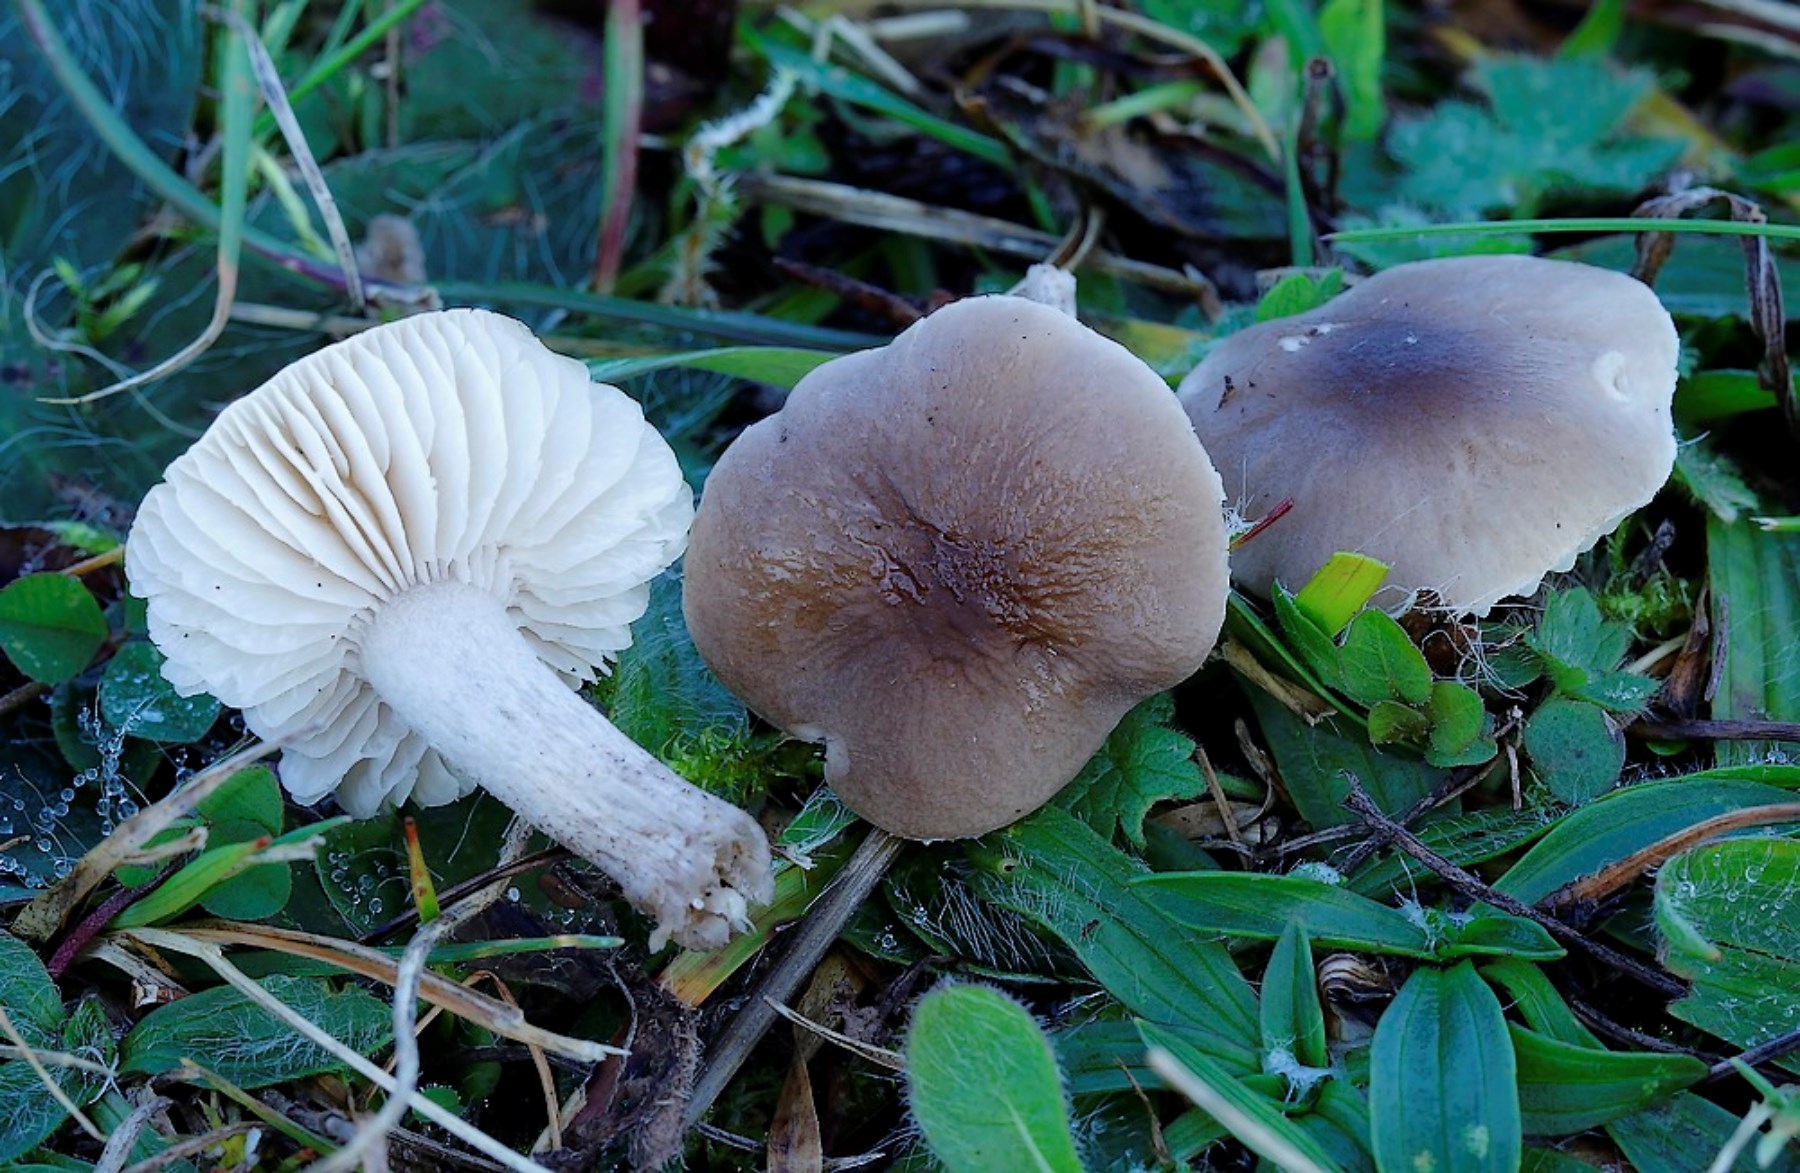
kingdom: Fungi
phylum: Basidiomycota
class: Agaricomycetes
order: Agaricales
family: Tricholomataceae
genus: Dermoloma
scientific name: Dermoloma cuneifolium
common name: eng-nonnehat
